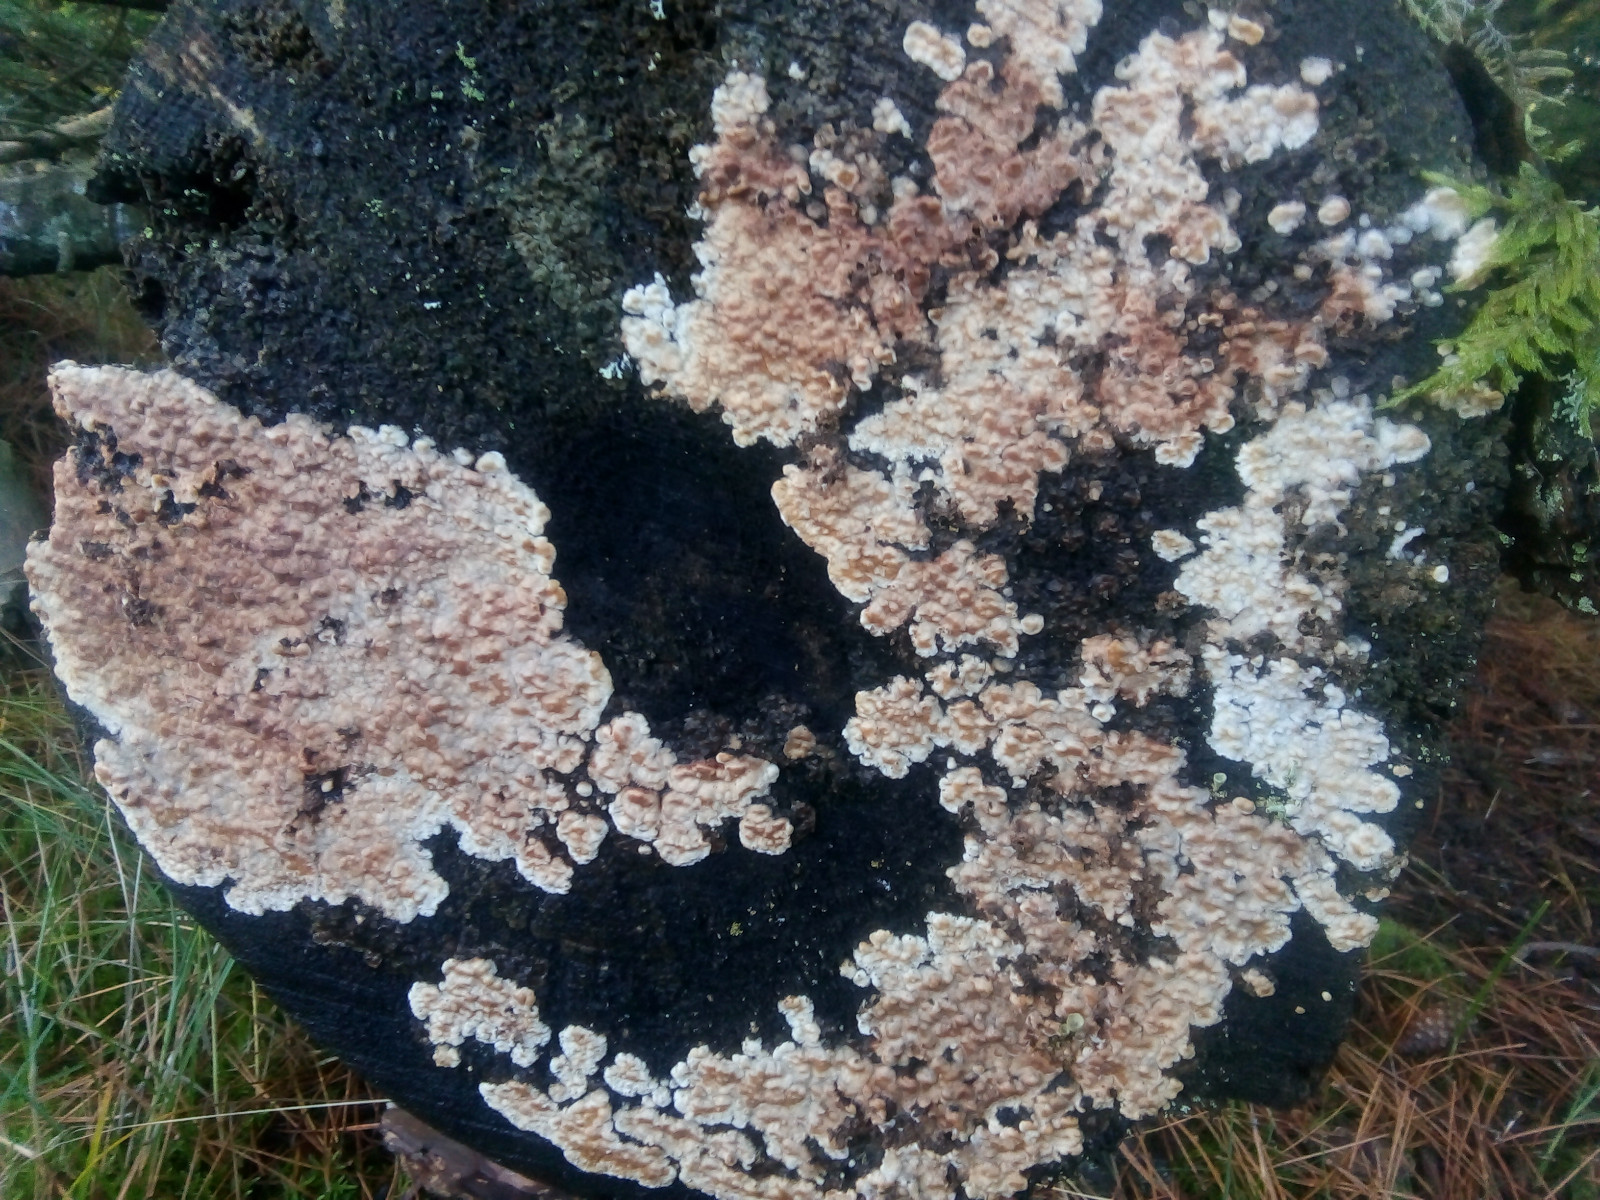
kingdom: Fungi
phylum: Basidiomycota
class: Agaricomycetes
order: Polyporales
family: Dacryobolaceae
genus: Dacryobolus
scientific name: Dacryobolus karstenii
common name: glat vulkanskorpe
